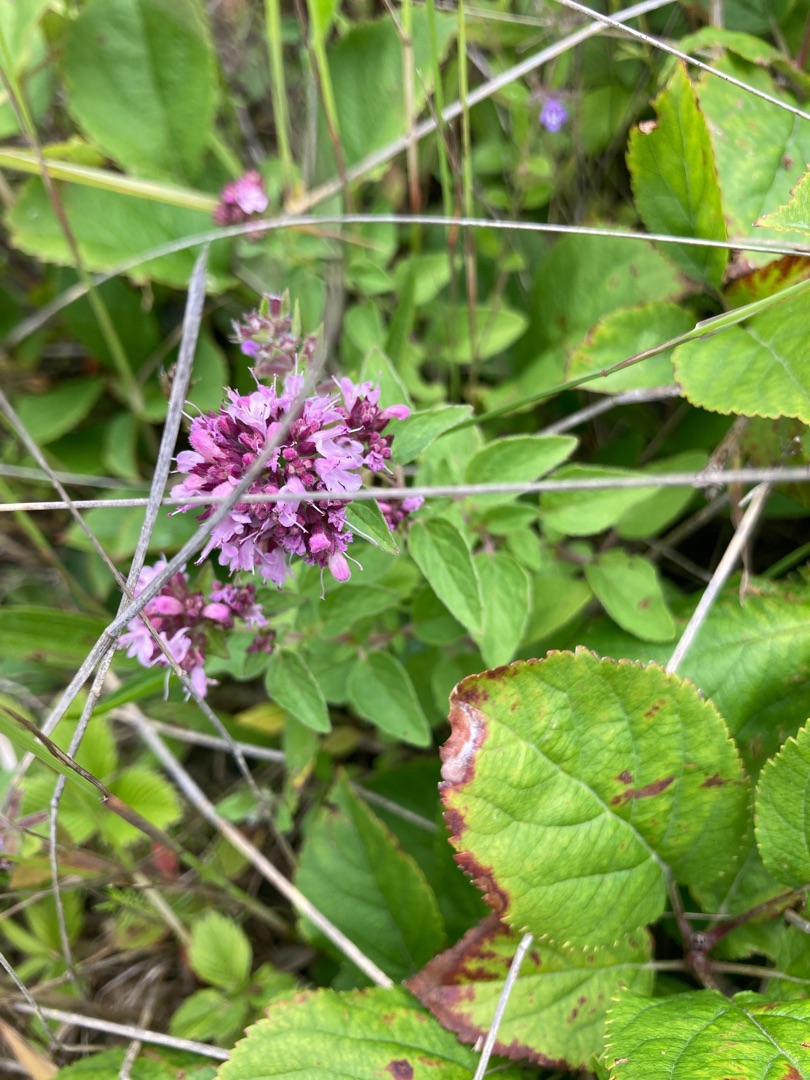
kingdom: Plantae
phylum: Tracheophyta
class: Magnoliopsida
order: Lamiales
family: Lamiaceae
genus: Origanum
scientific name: Origanum vulgare
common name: Merian
